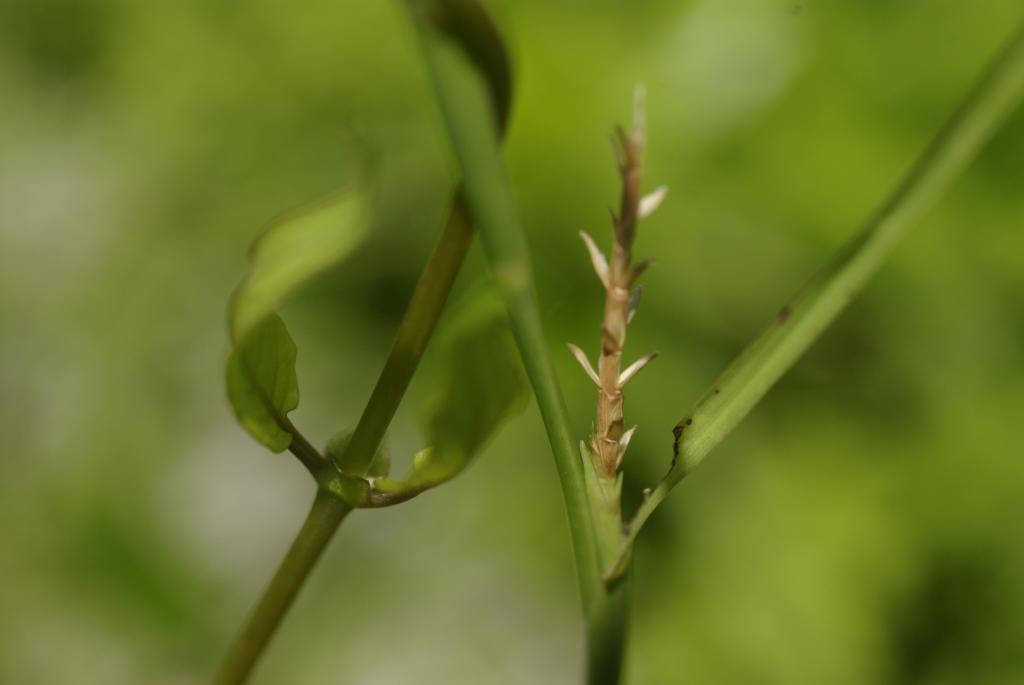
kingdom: Plantae
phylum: Tracheophyta
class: Liliopsida
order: Poales
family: Poaceae
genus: Hemarthria
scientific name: Hemarthria compressa
